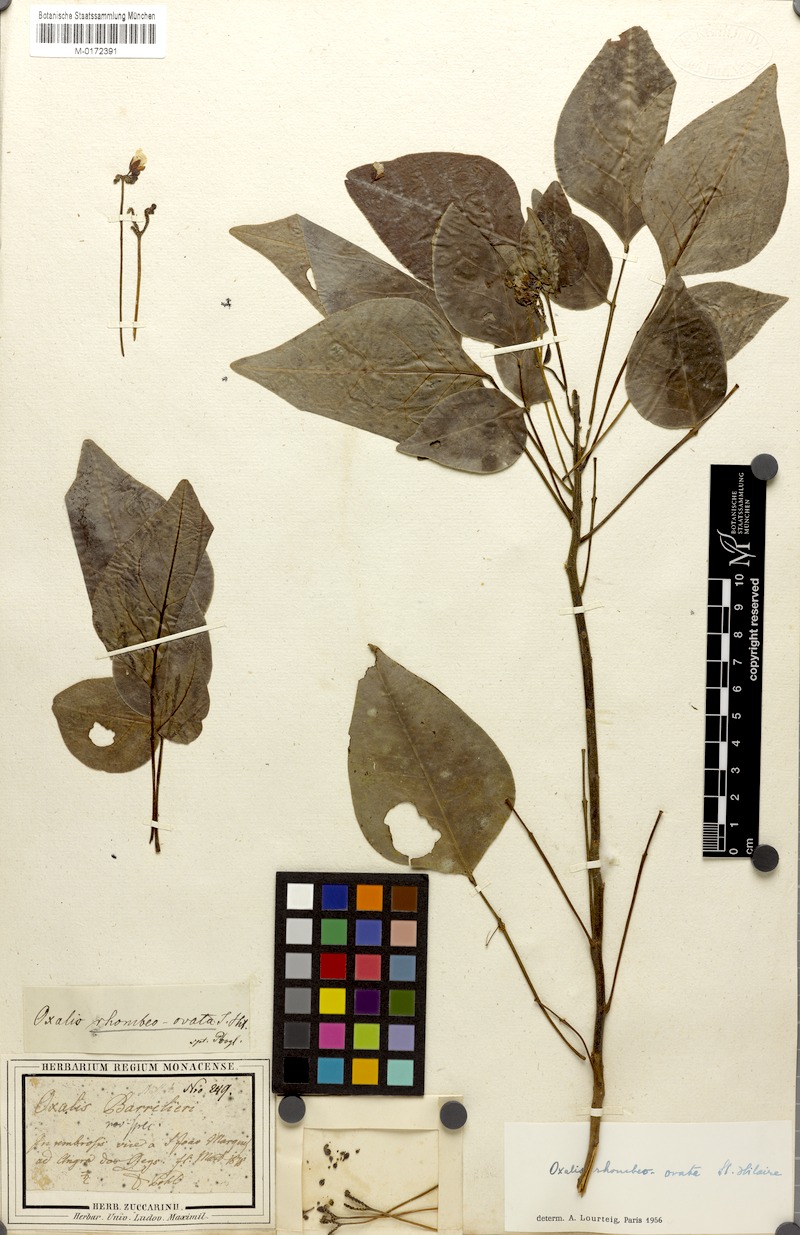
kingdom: Plantae
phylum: Tracheophyta
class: Magnoliopsida
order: Oxalidales
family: Oxalidaceae
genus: Oxalis
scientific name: Oxalis rhombeo-ovata
